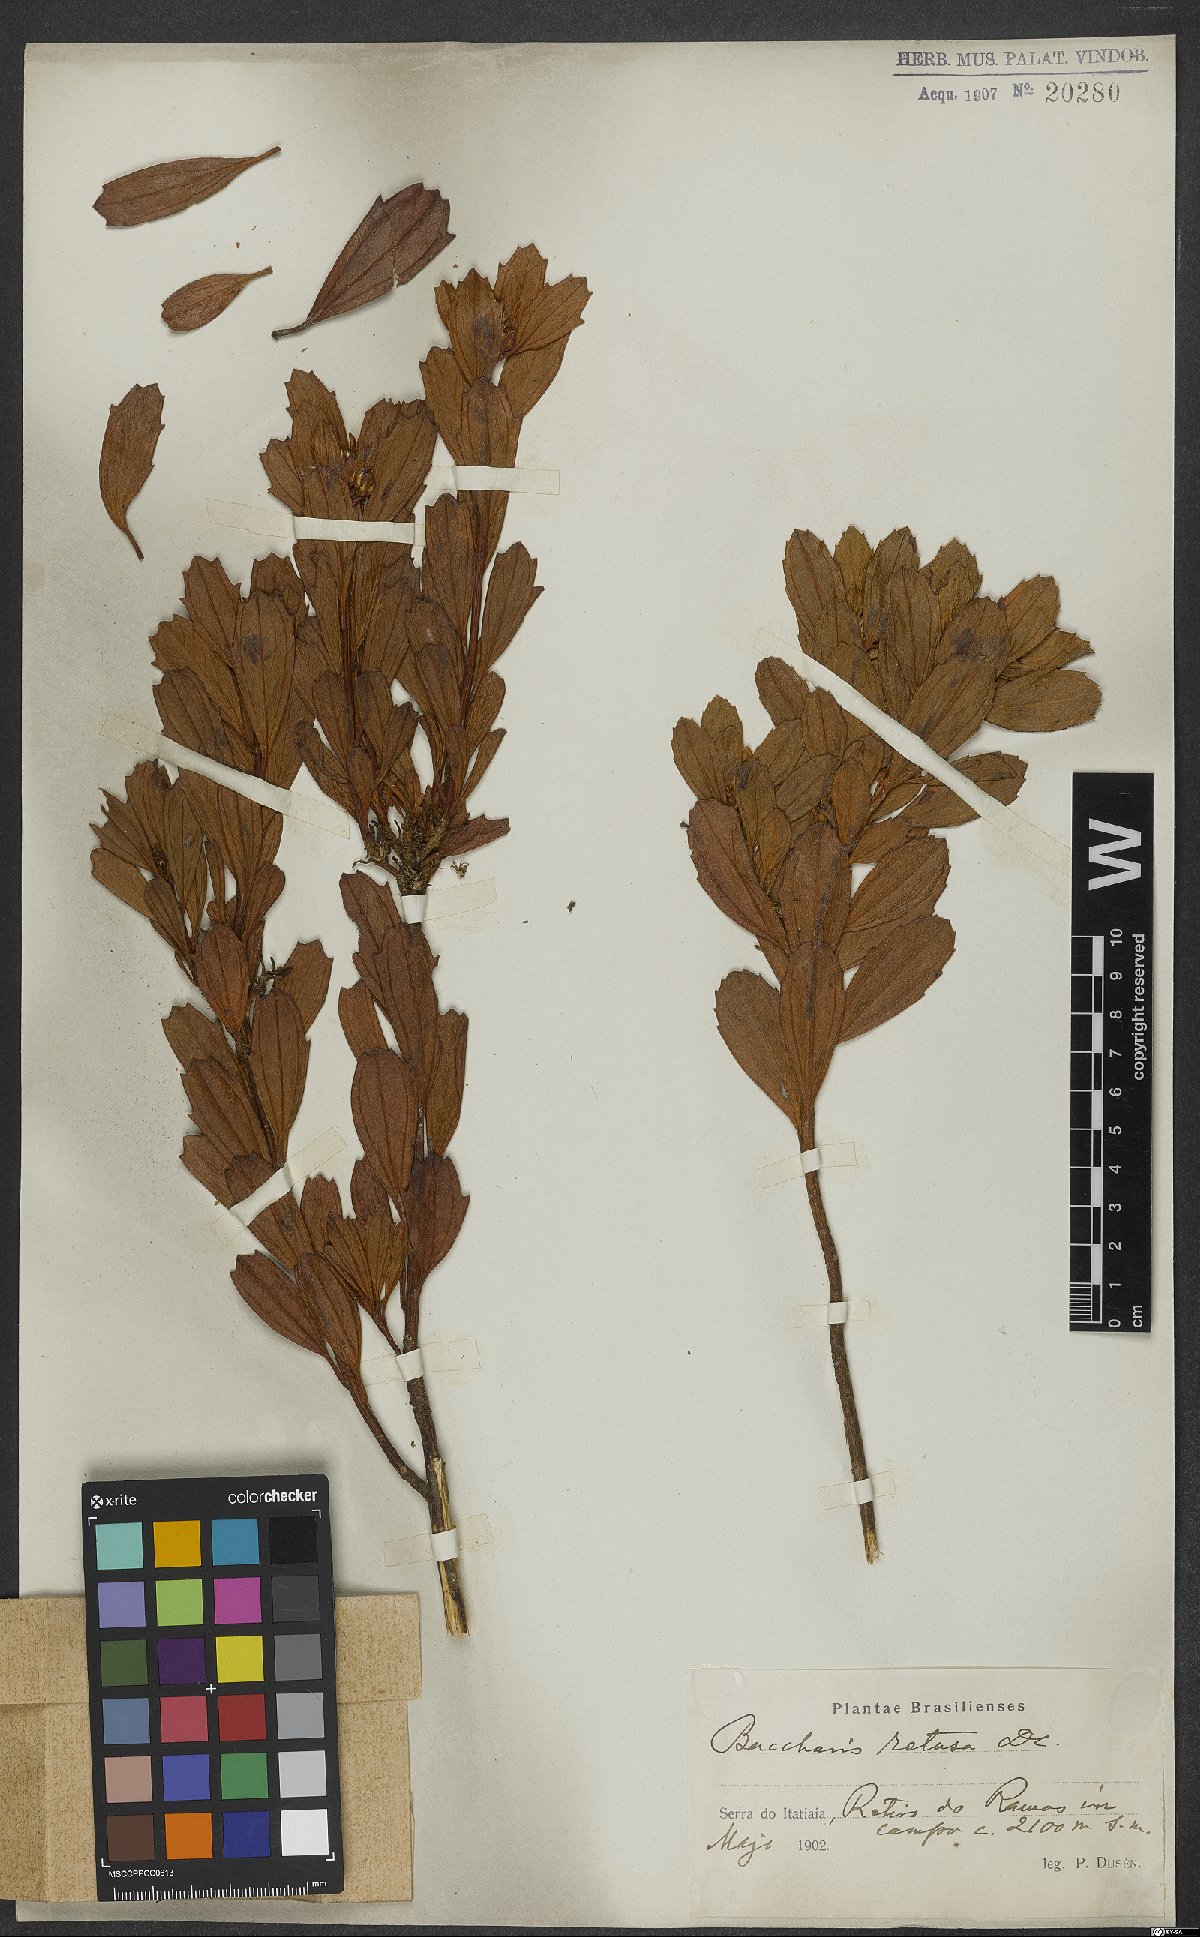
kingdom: Plantae
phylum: Tracheophyta
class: Magnoliopsida
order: Asterales
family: Asteraceae
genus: Baccharis
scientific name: Baccharis retusa
